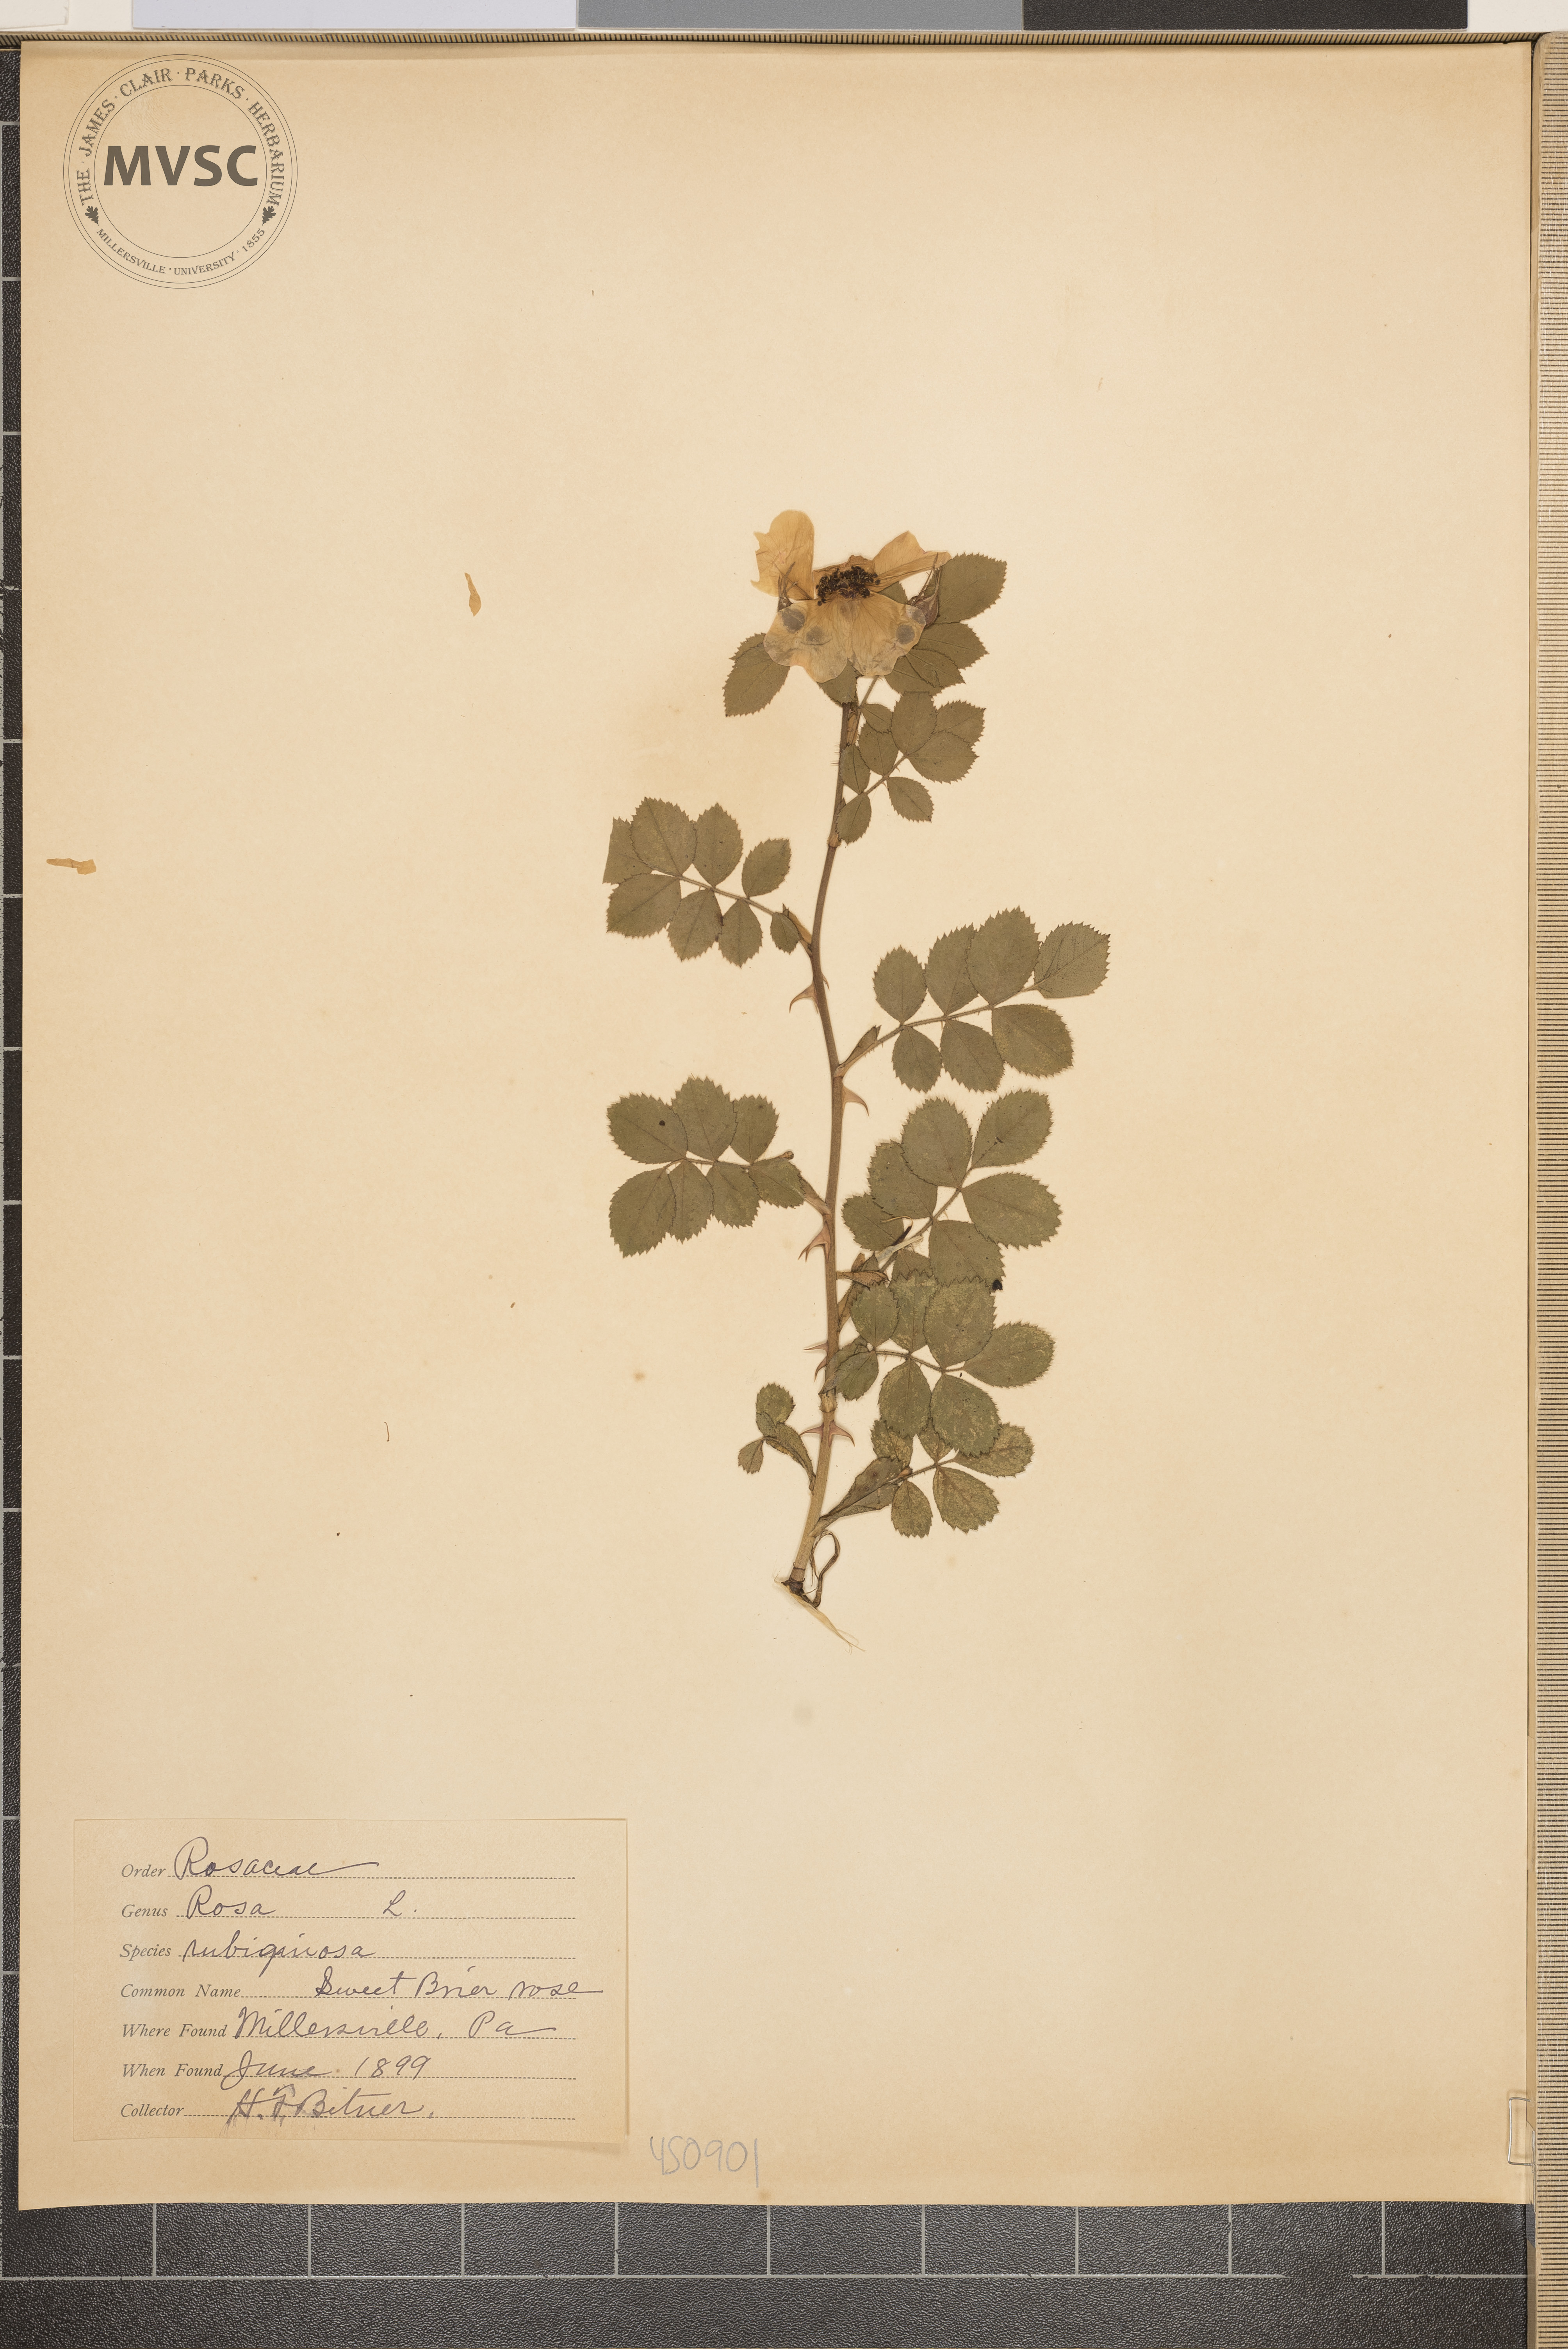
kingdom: Plantae
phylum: Tracheophyta
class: Magnoliopsida
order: Rosales
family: Rosaceae
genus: Rosa
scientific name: Rosa rubiginosa
